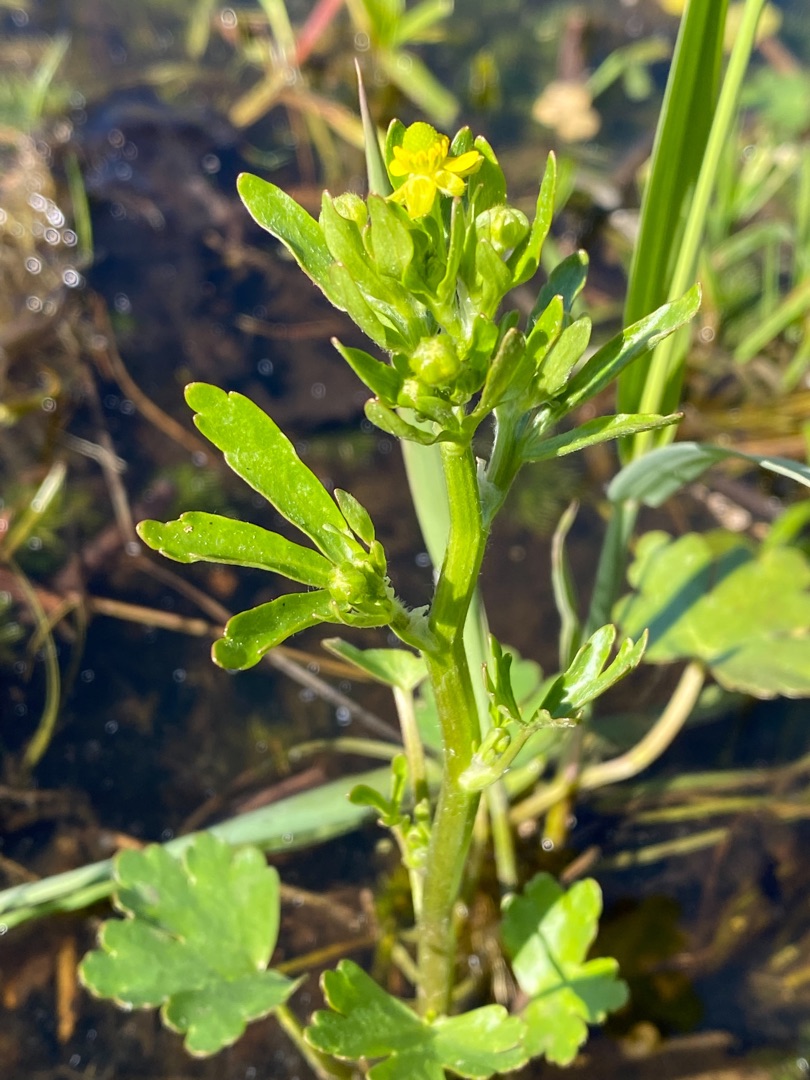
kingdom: Plantae
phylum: Tracheophyta
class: Magnoliopsida
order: Ranunculales
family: Ranunculaceae
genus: Ranunculus
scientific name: Ranunculus sceleratus
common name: Tigger-ranunkel
